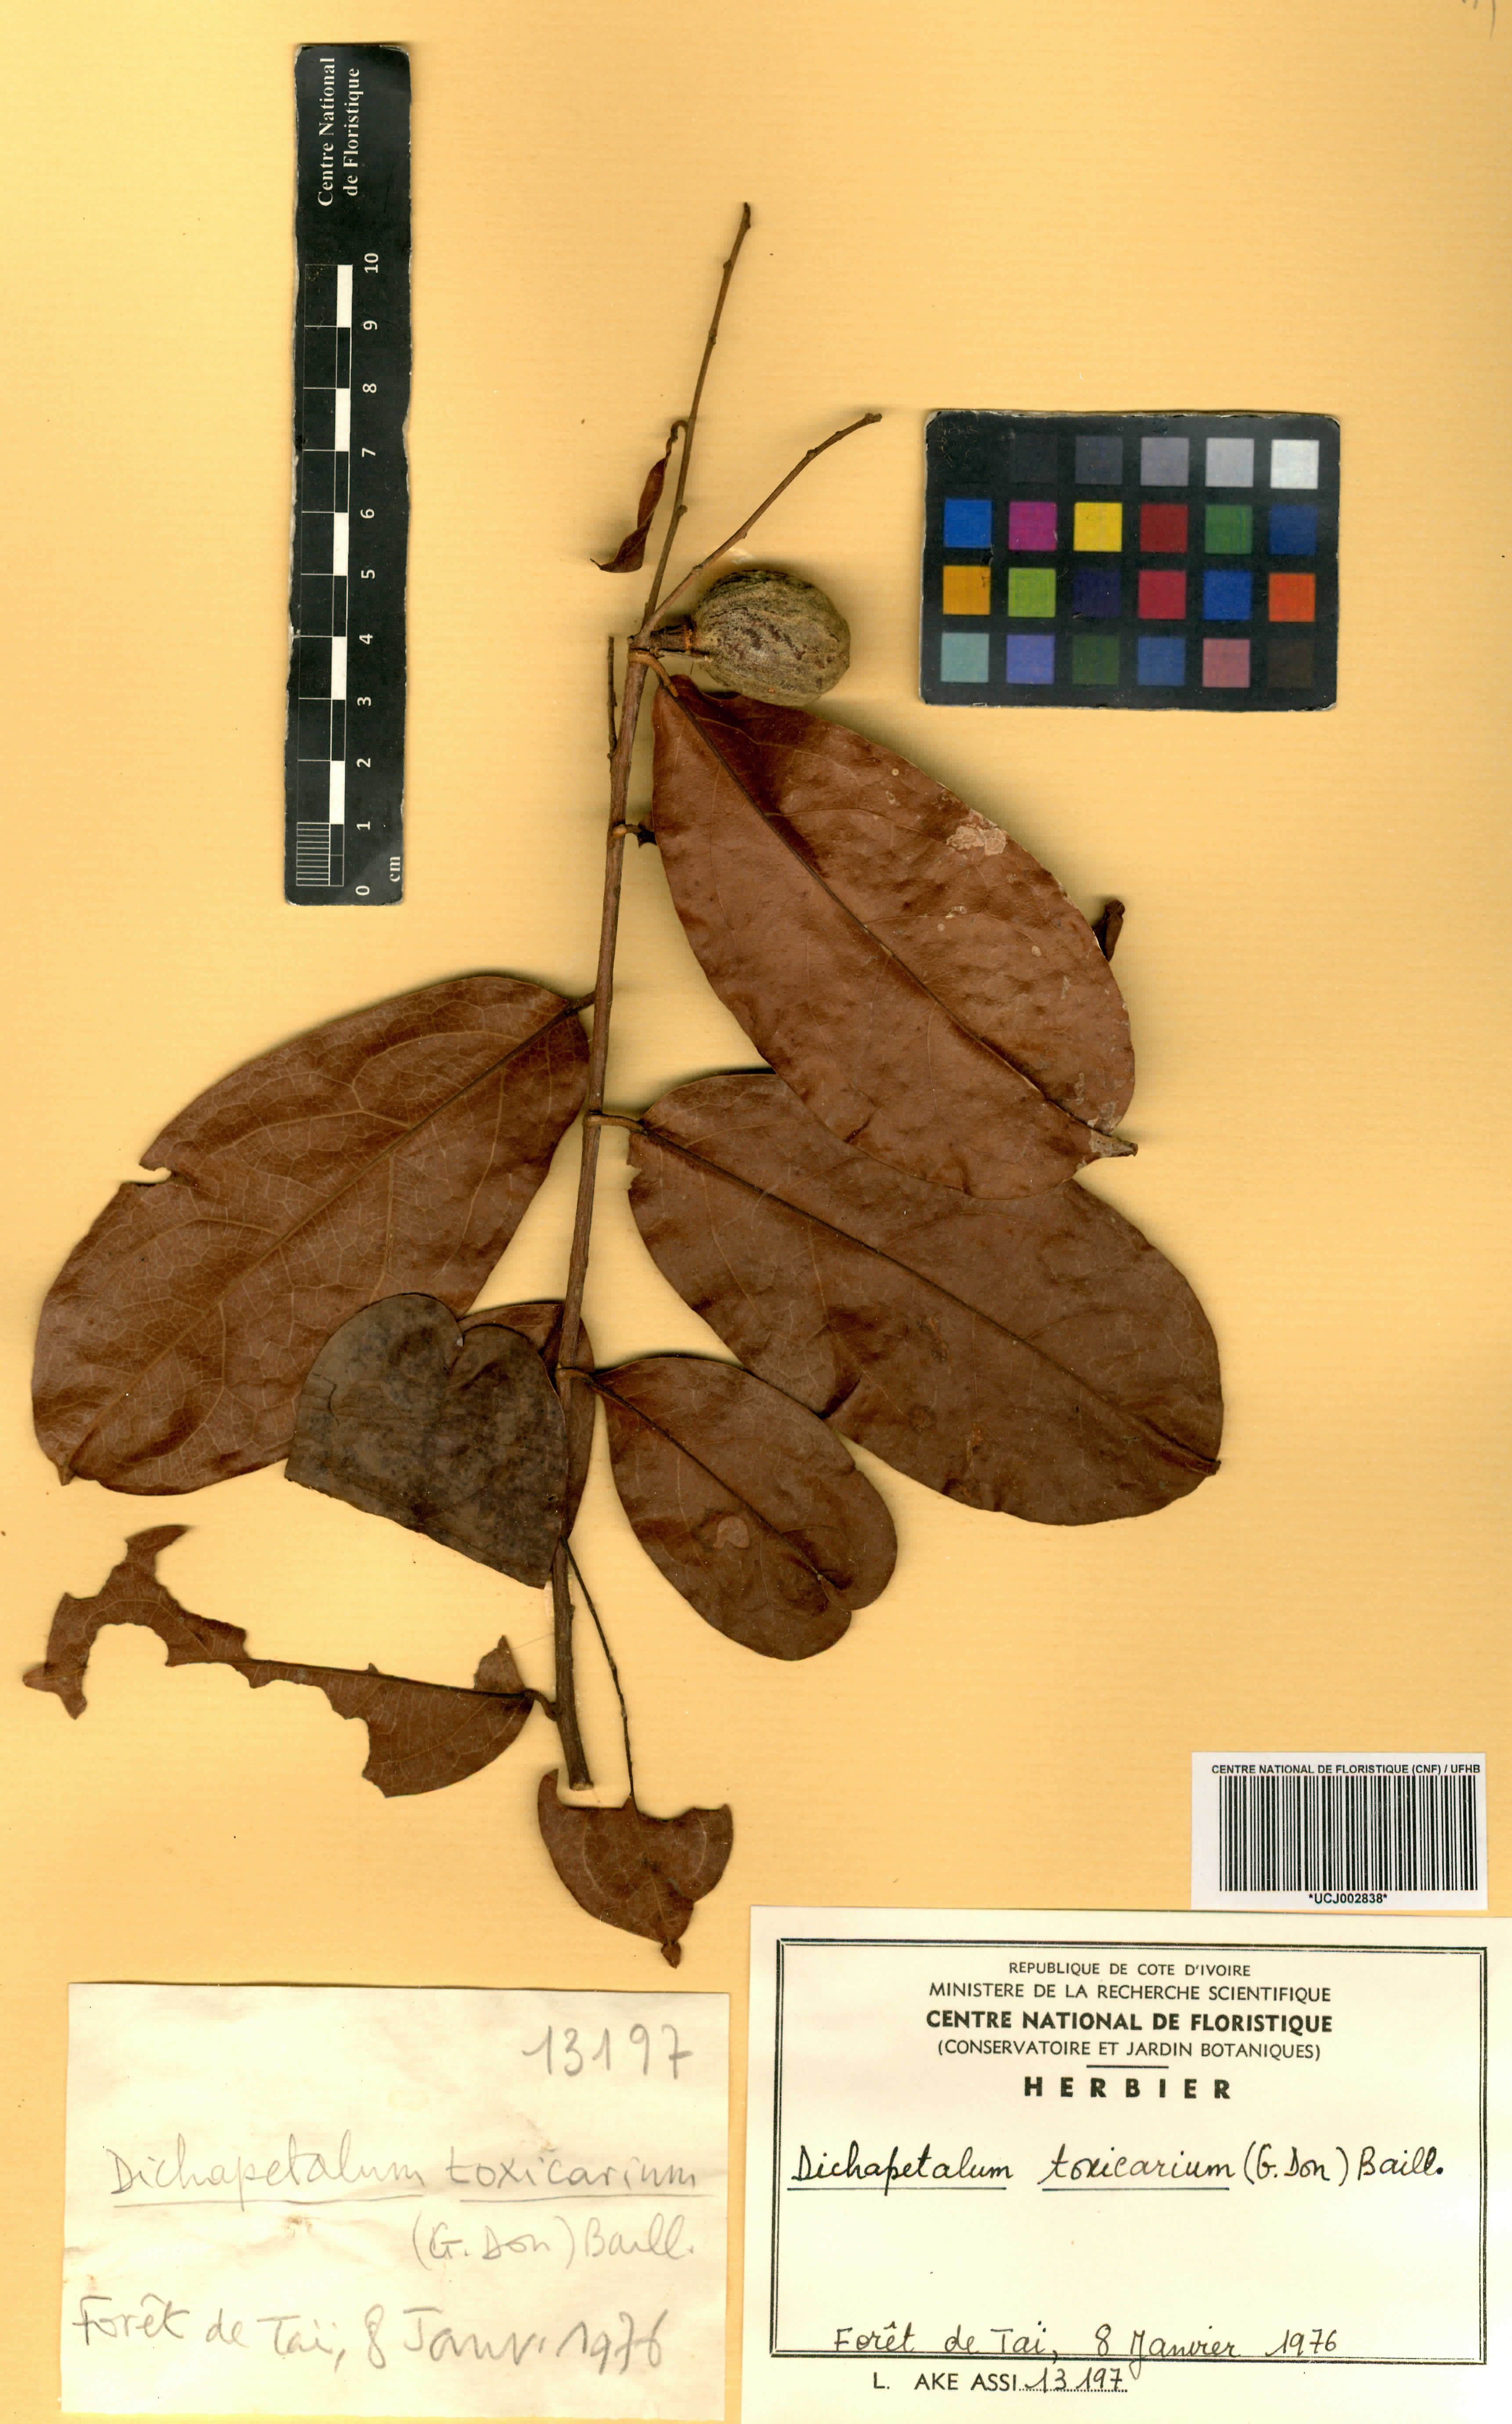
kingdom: Plantae
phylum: Tracheophyta
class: Magnoliopsida
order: Malpighiales
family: Dichapetalaceae
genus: Dichapetalum
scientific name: Dichapetalum toxicarium
